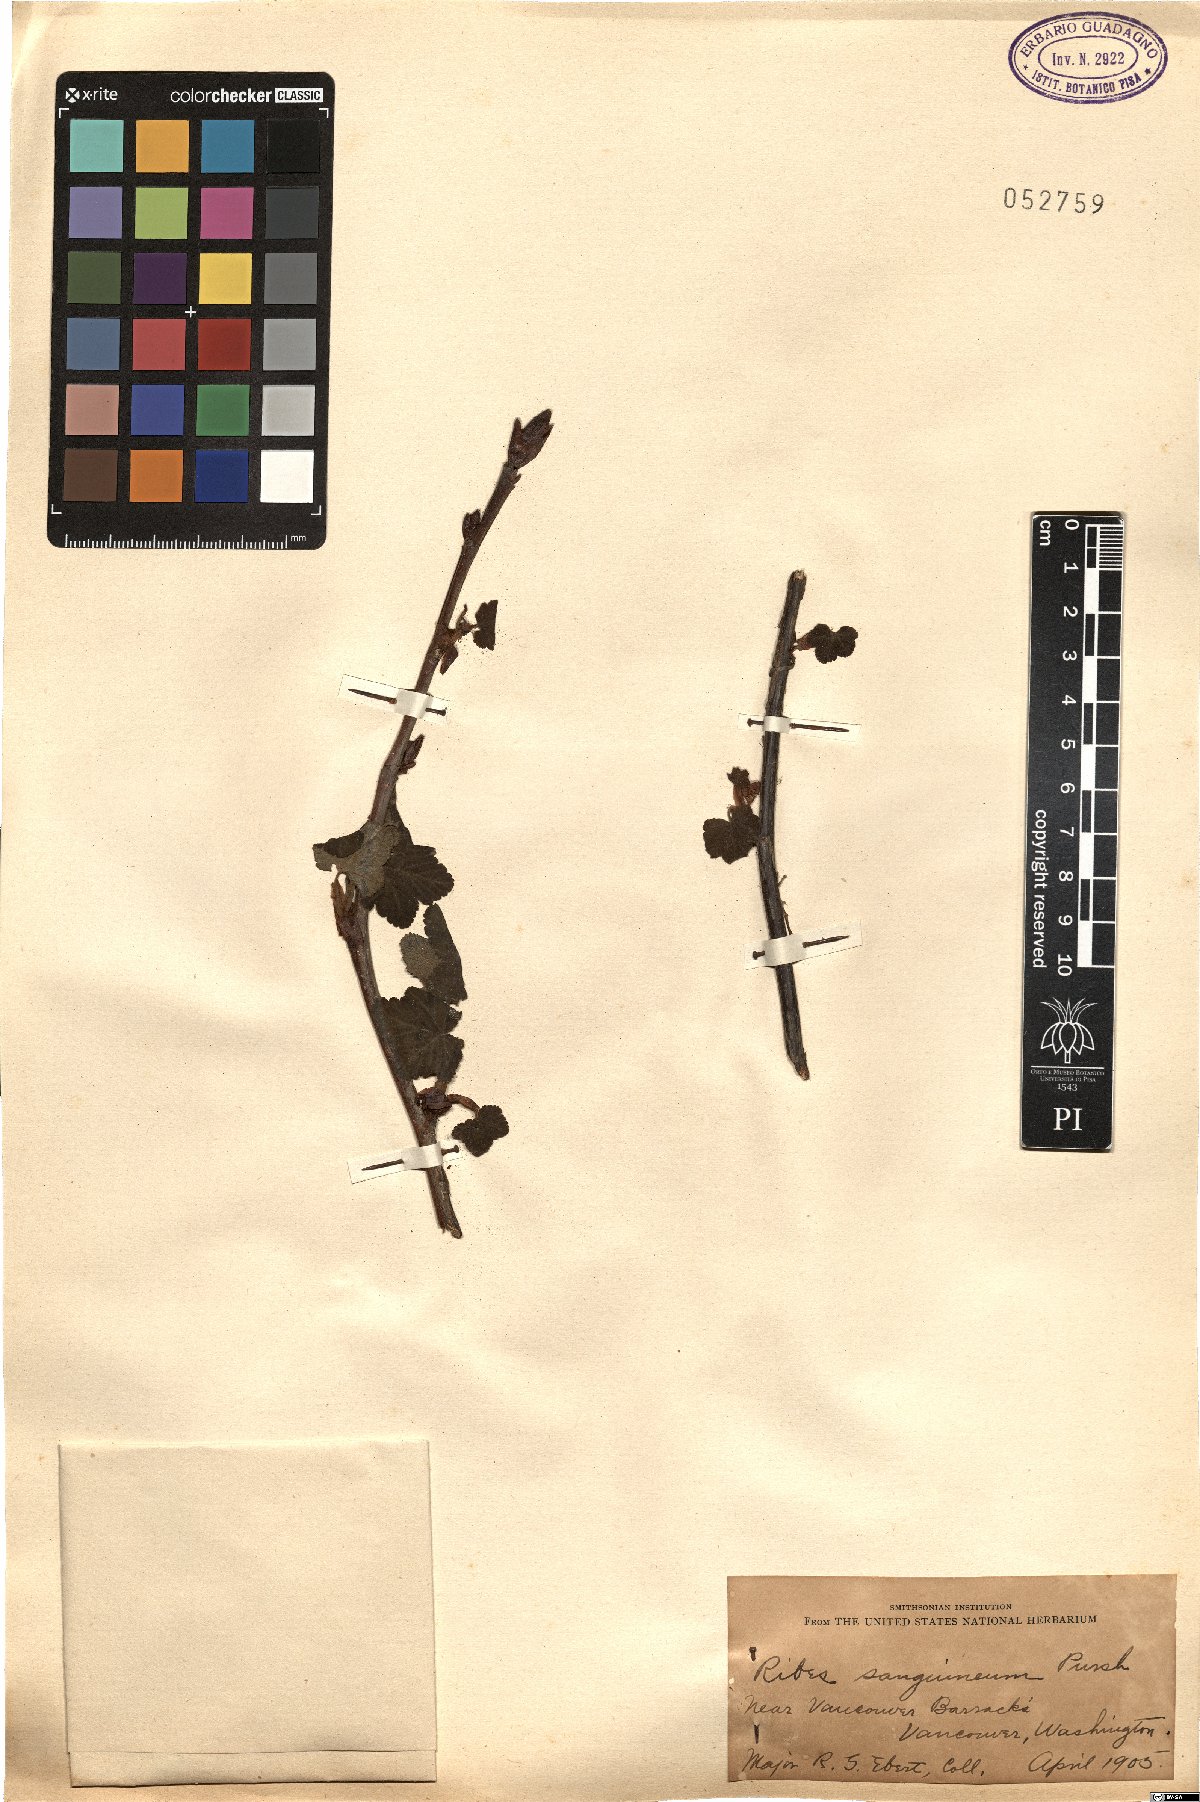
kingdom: Plantae
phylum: Tracheophyta
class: Magnoliopsida
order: Saxifragales
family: Grossulariaceae
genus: Ribes
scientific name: Ribes sanguineum
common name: Flowering currant
